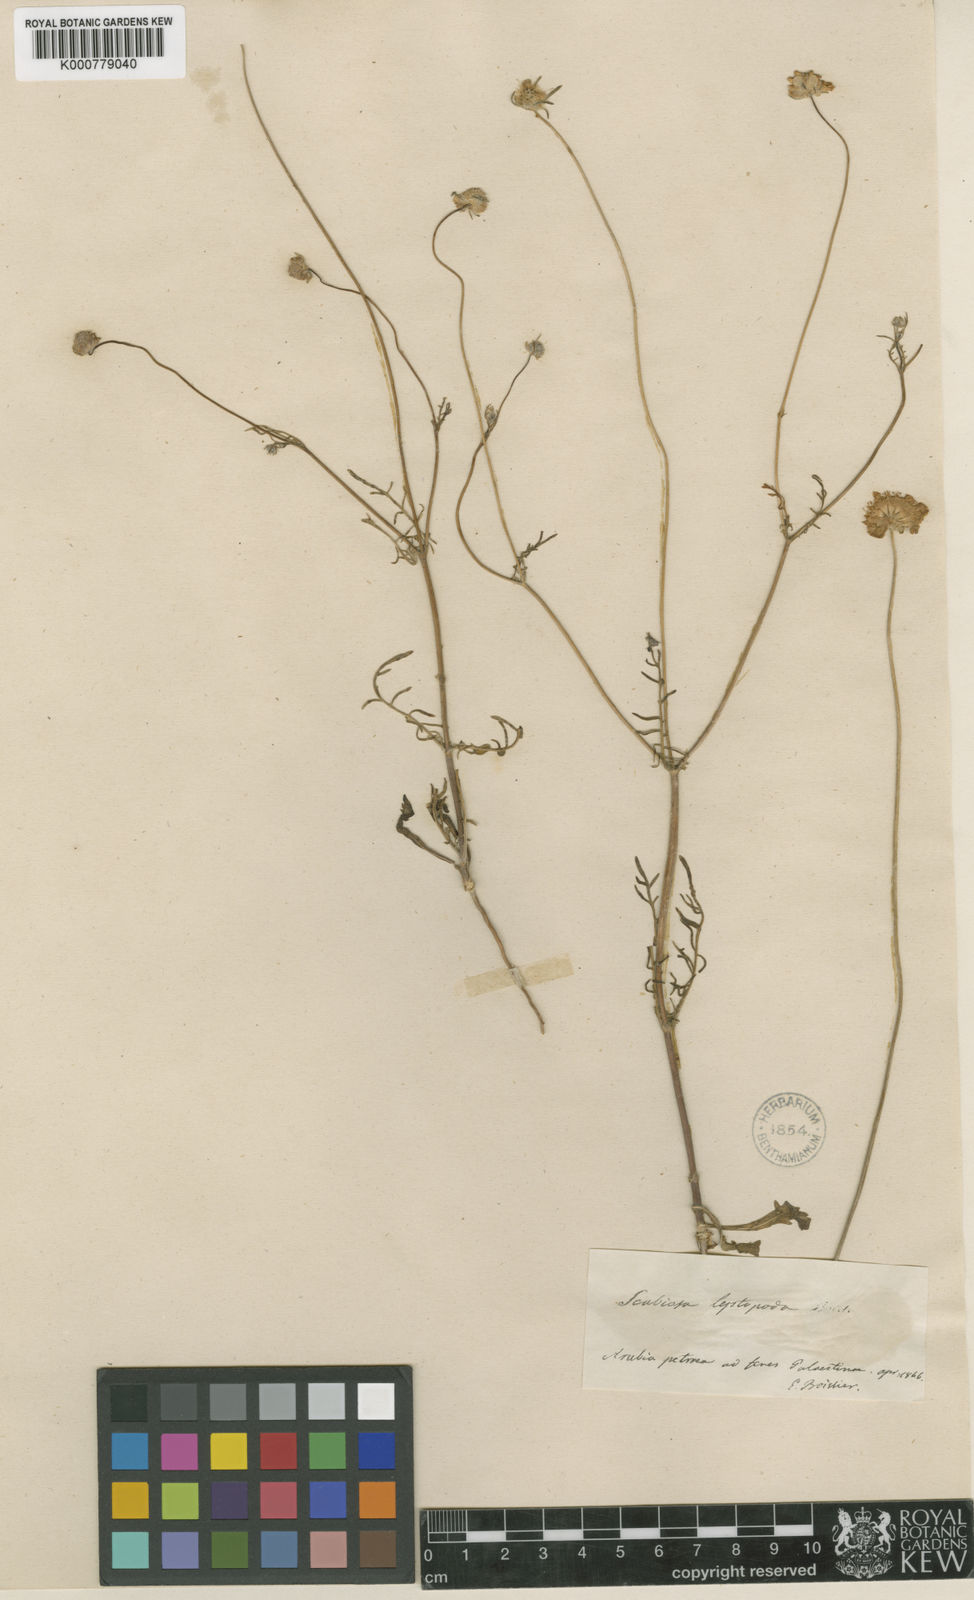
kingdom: Plantae
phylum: Tracheophyta
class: Magnoliopsida
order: Dipsacales
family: Caprifoliaceae
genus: Sixalix
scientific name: Sixalix arenaria
